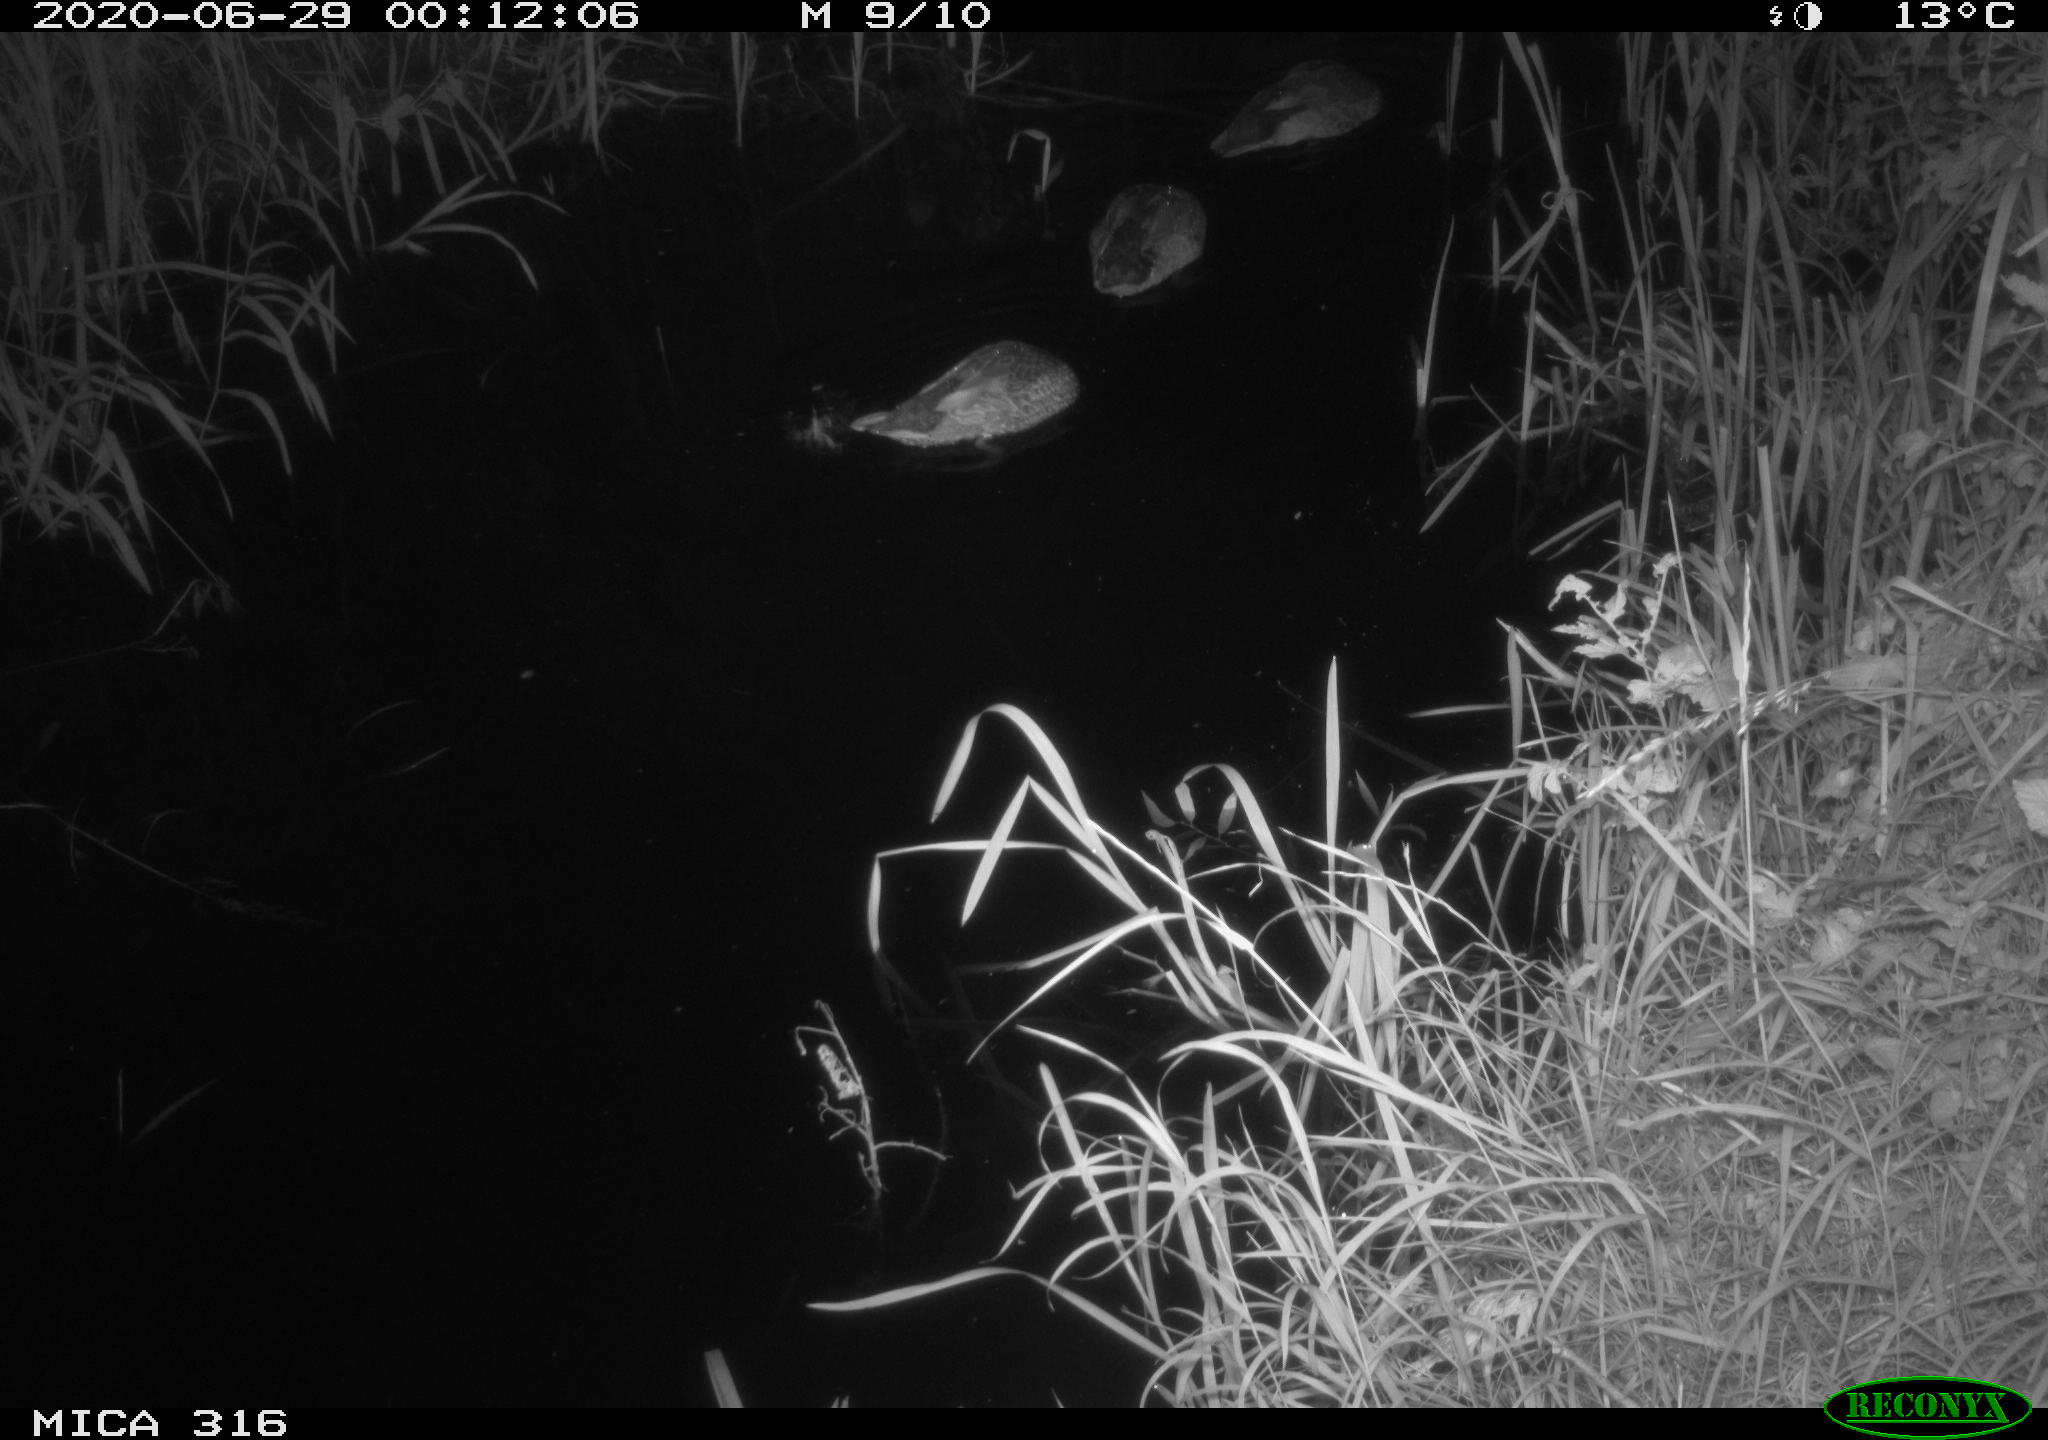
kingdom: Animalia
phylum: Chordata
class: Aves
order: Anseriformes
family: Anatidae
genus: Anas
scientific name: Anas platyrhynchos
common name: Mallard
